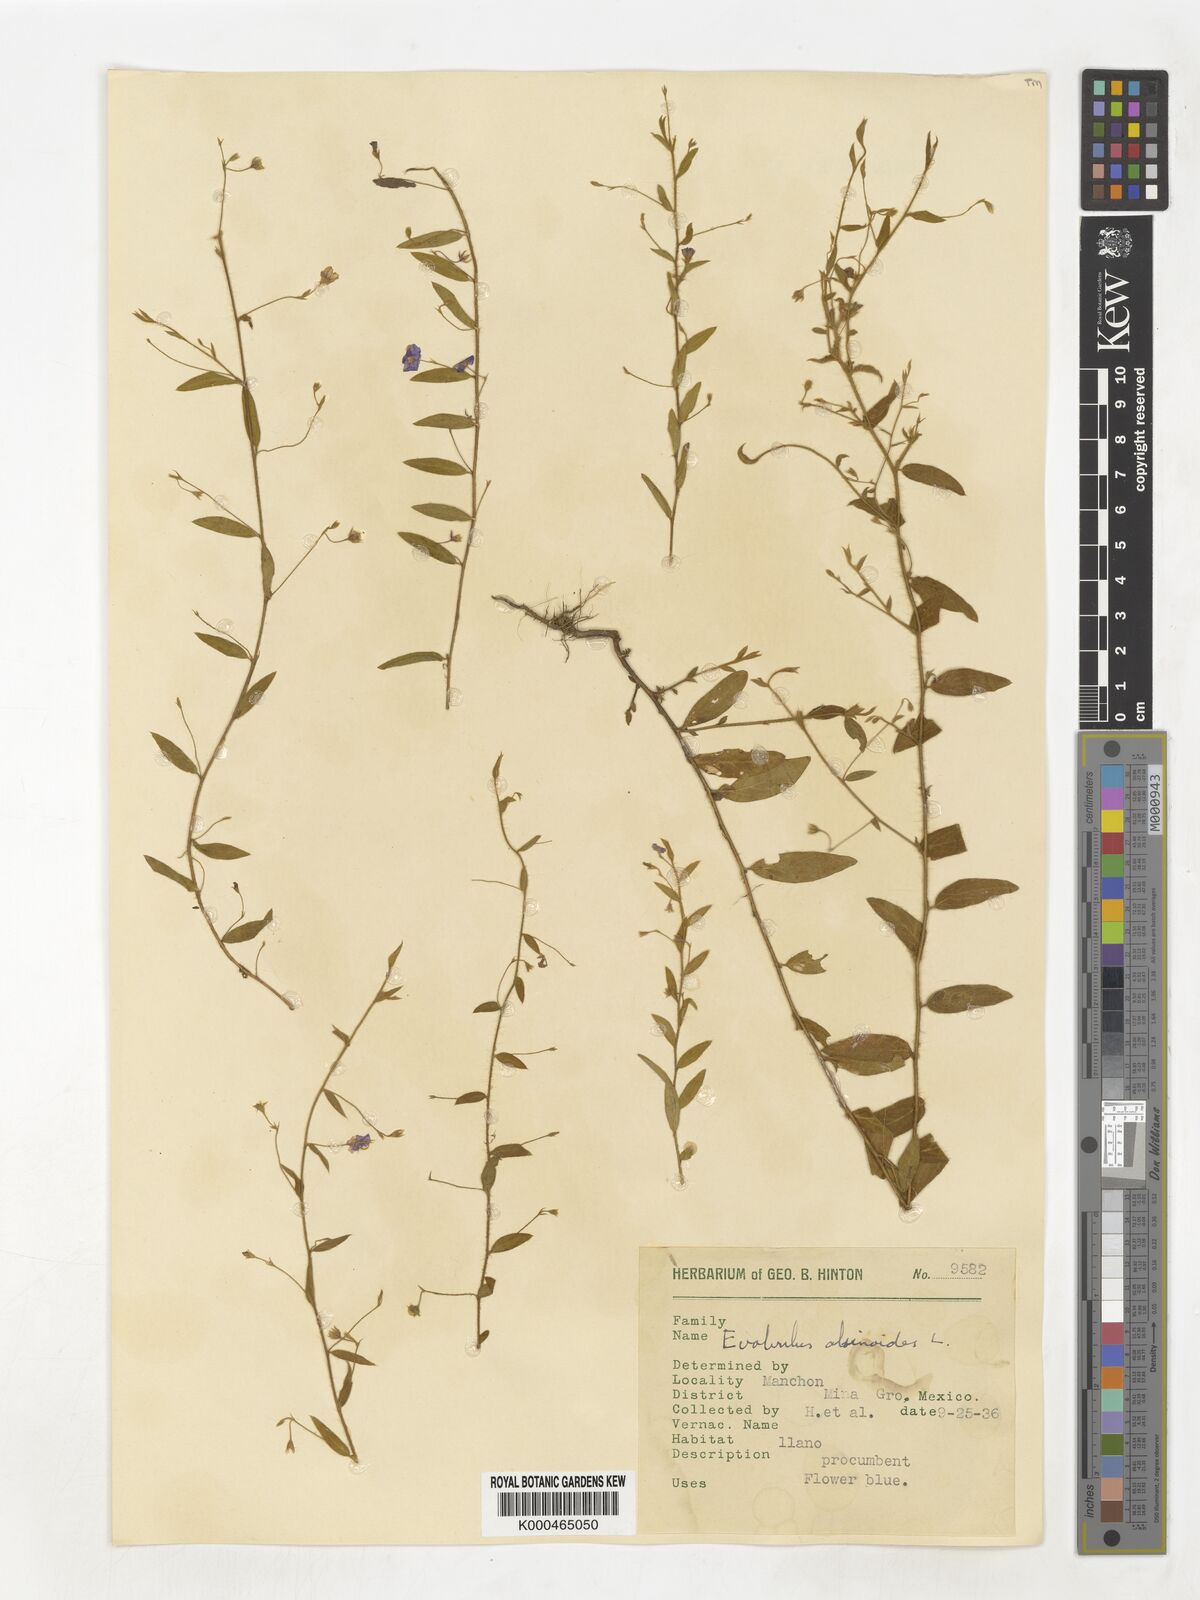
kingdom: Plantae
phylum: Tracheophyta
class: Magnoliopsida
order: Solanales
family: Convolvulaceae
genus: Evolvulus
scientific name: Evolvulus alsinoides
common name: Slender dwarf morning-glory
